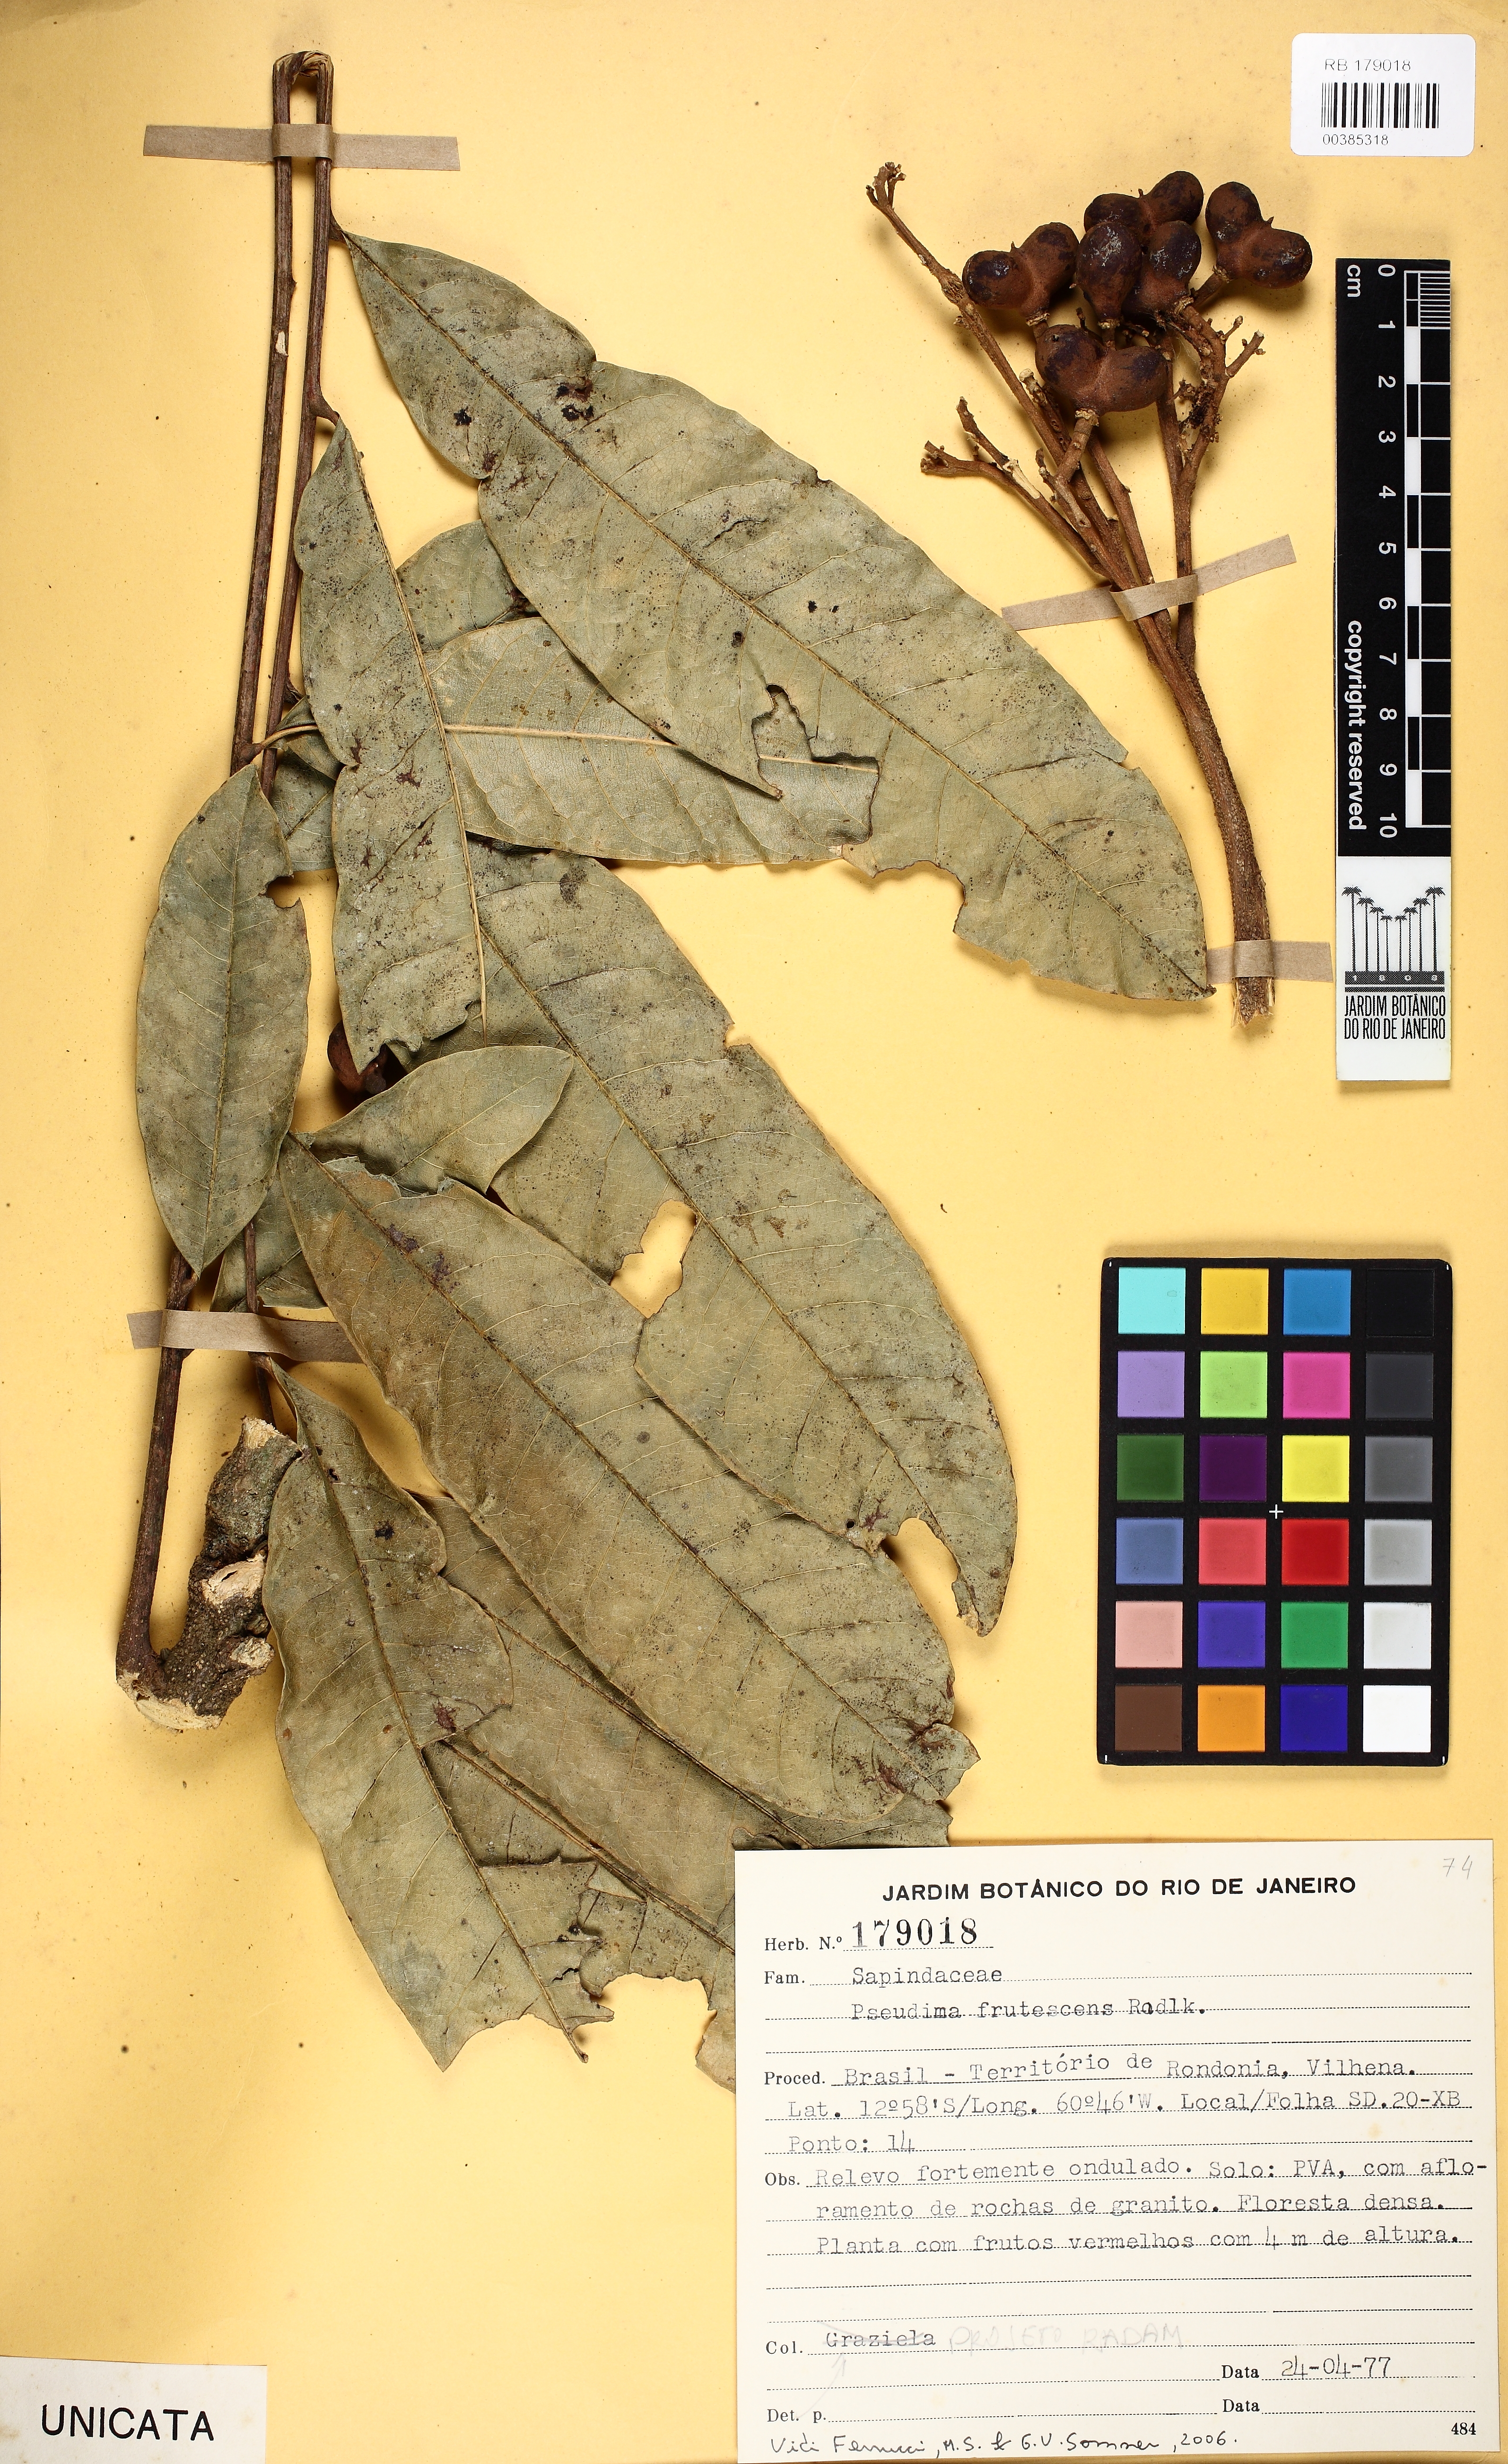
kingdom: Plantae
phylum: Tracheophyta
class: Magnoliopsida
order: Sapindales
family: Sapindaceae
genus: Pseudima
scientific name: Pseudima frutescens
